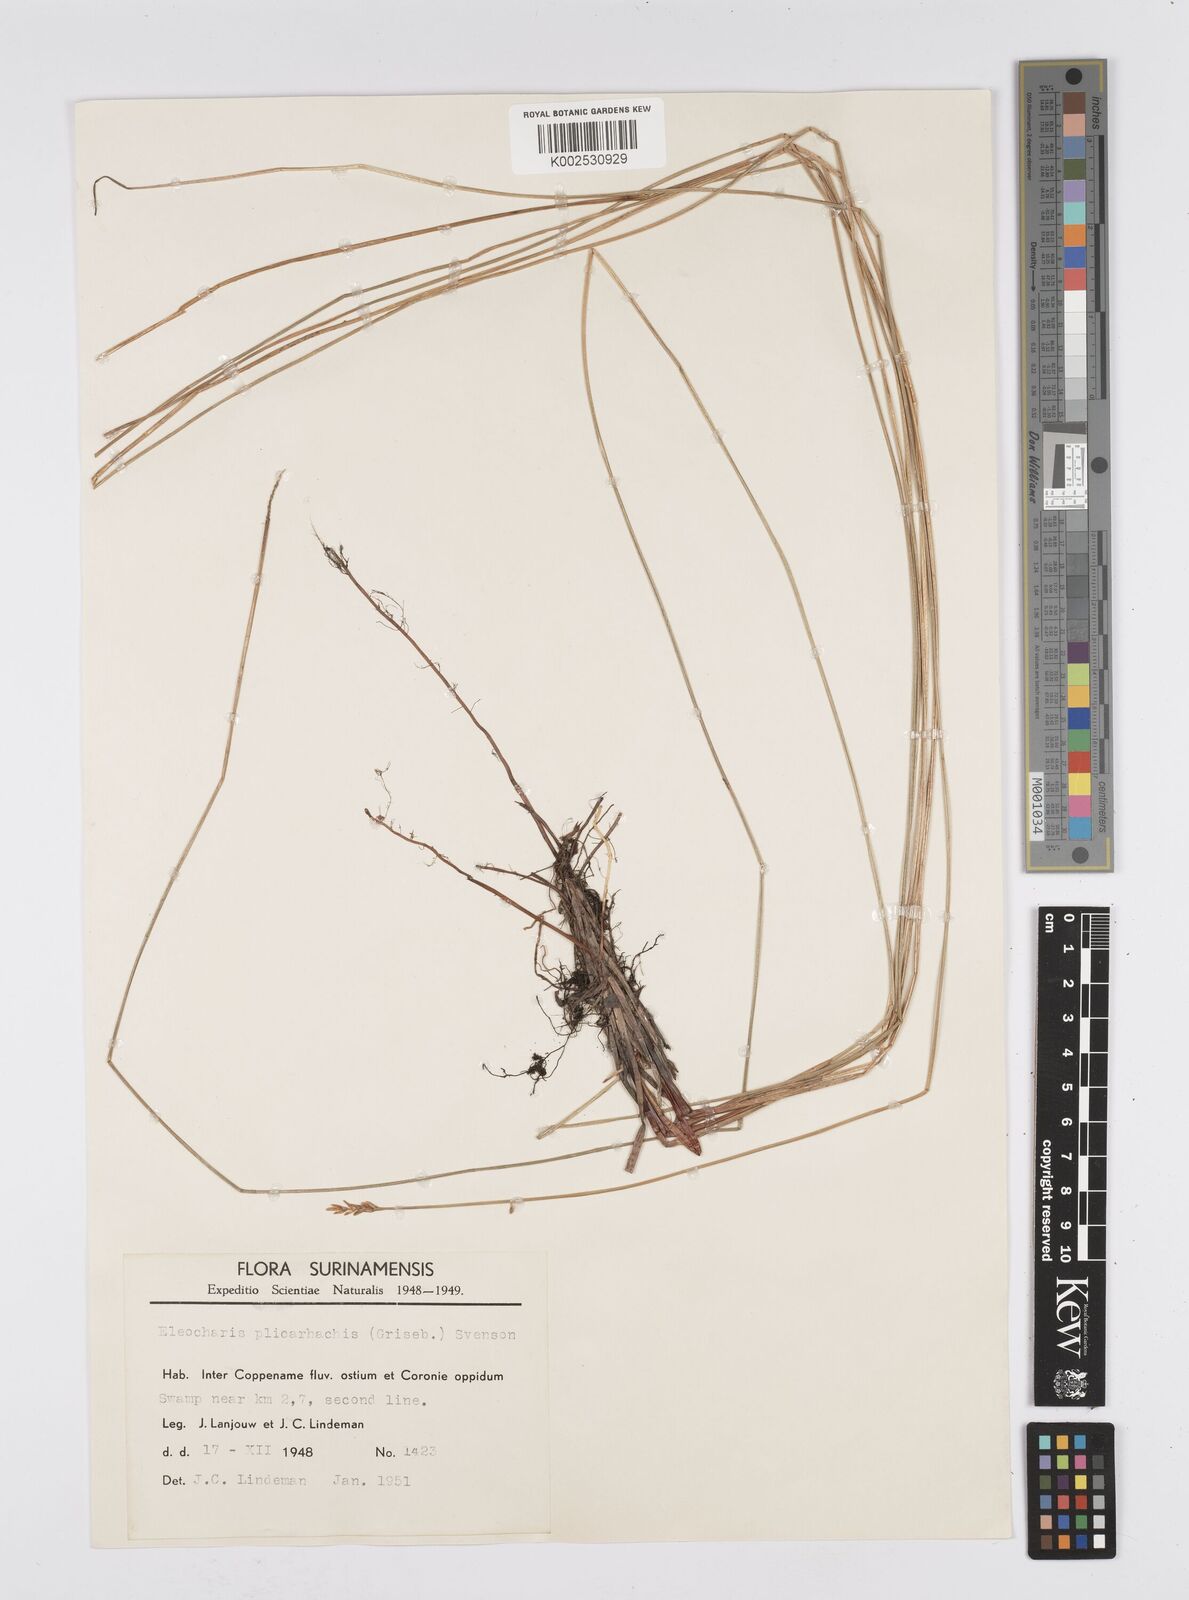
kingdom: Plantae
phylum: Tracheophyta
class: Liliopsida
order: Poales
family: Cyperaceae
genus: Eleocharis
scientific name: Eleocharis plicarhachis
